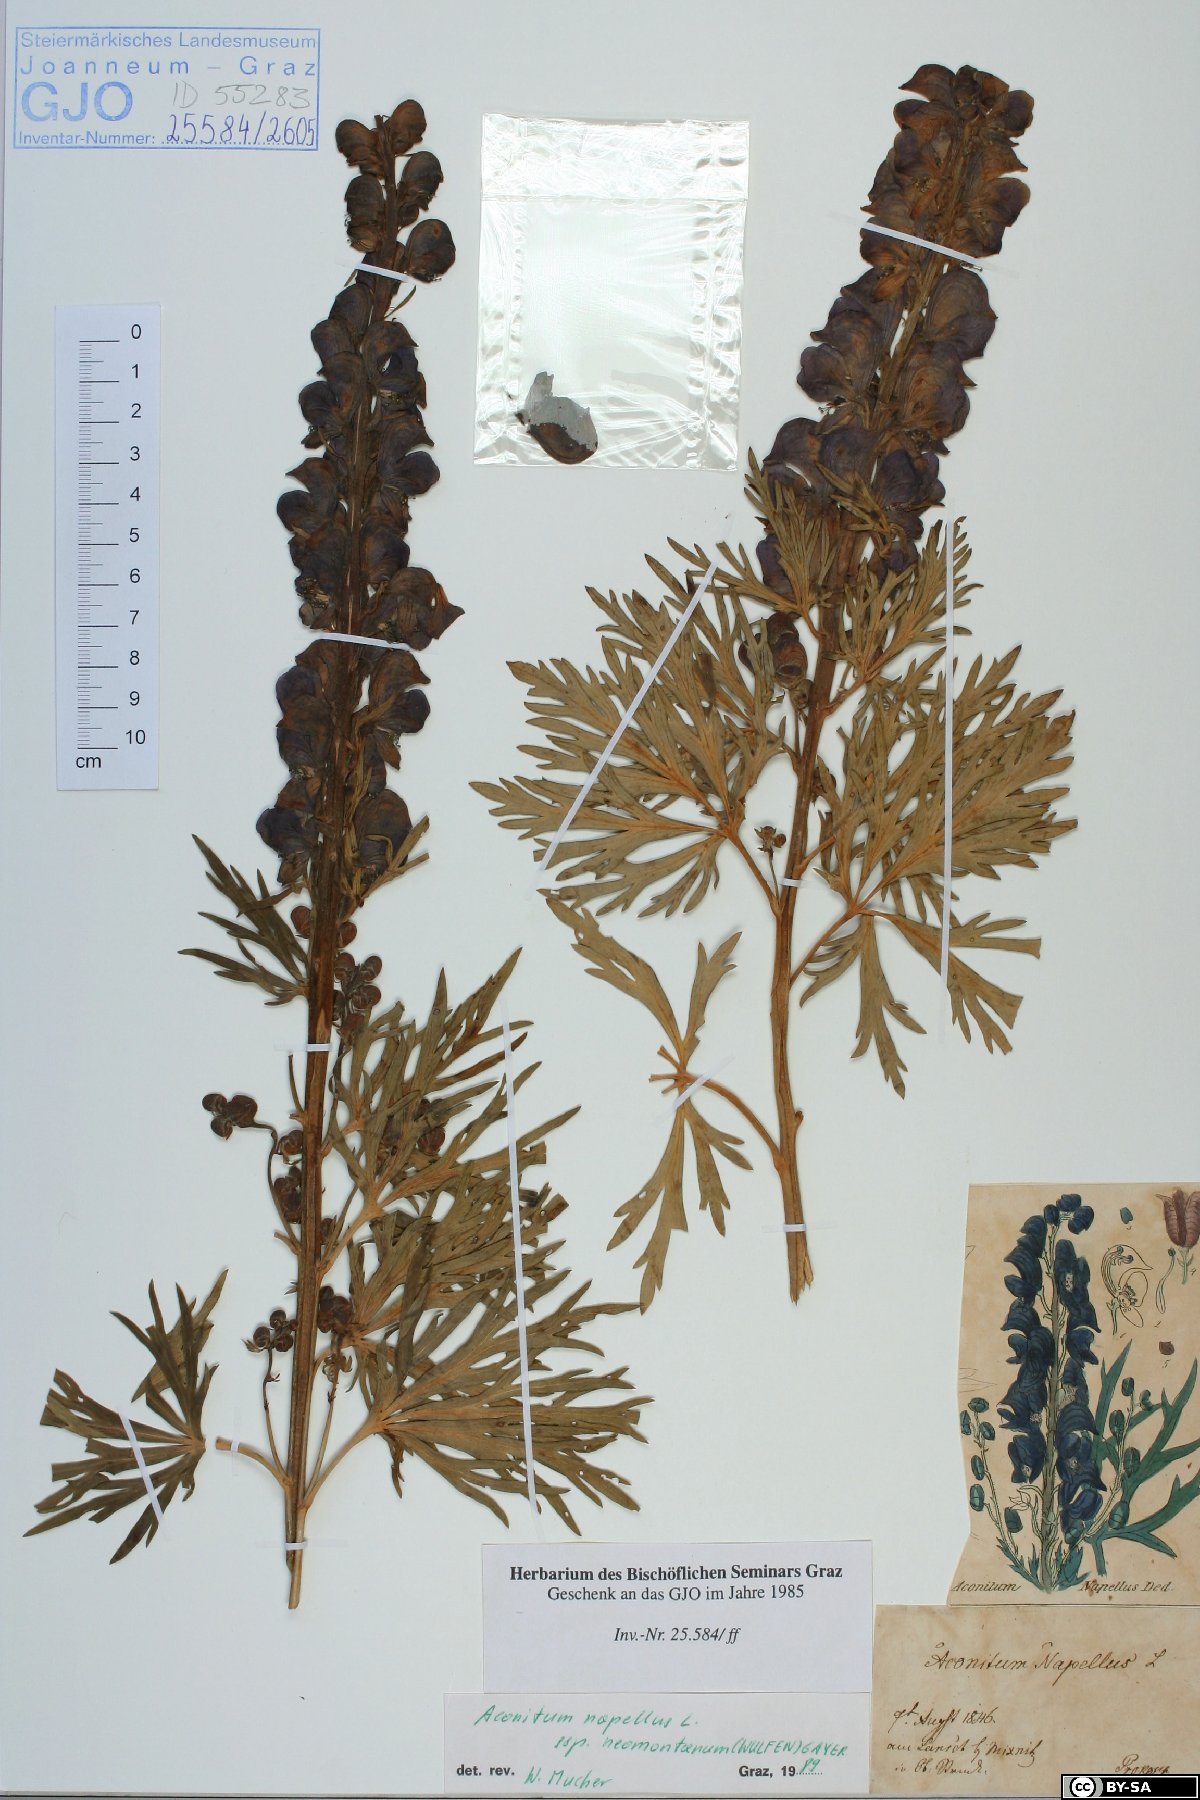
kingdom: Plantae
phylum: Tracheophyta
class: Magnoliopsida
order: Ranunculales
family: Ranunculaceae
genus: Aconitum
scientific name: Aconitum napellus
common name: Garden monkshood
